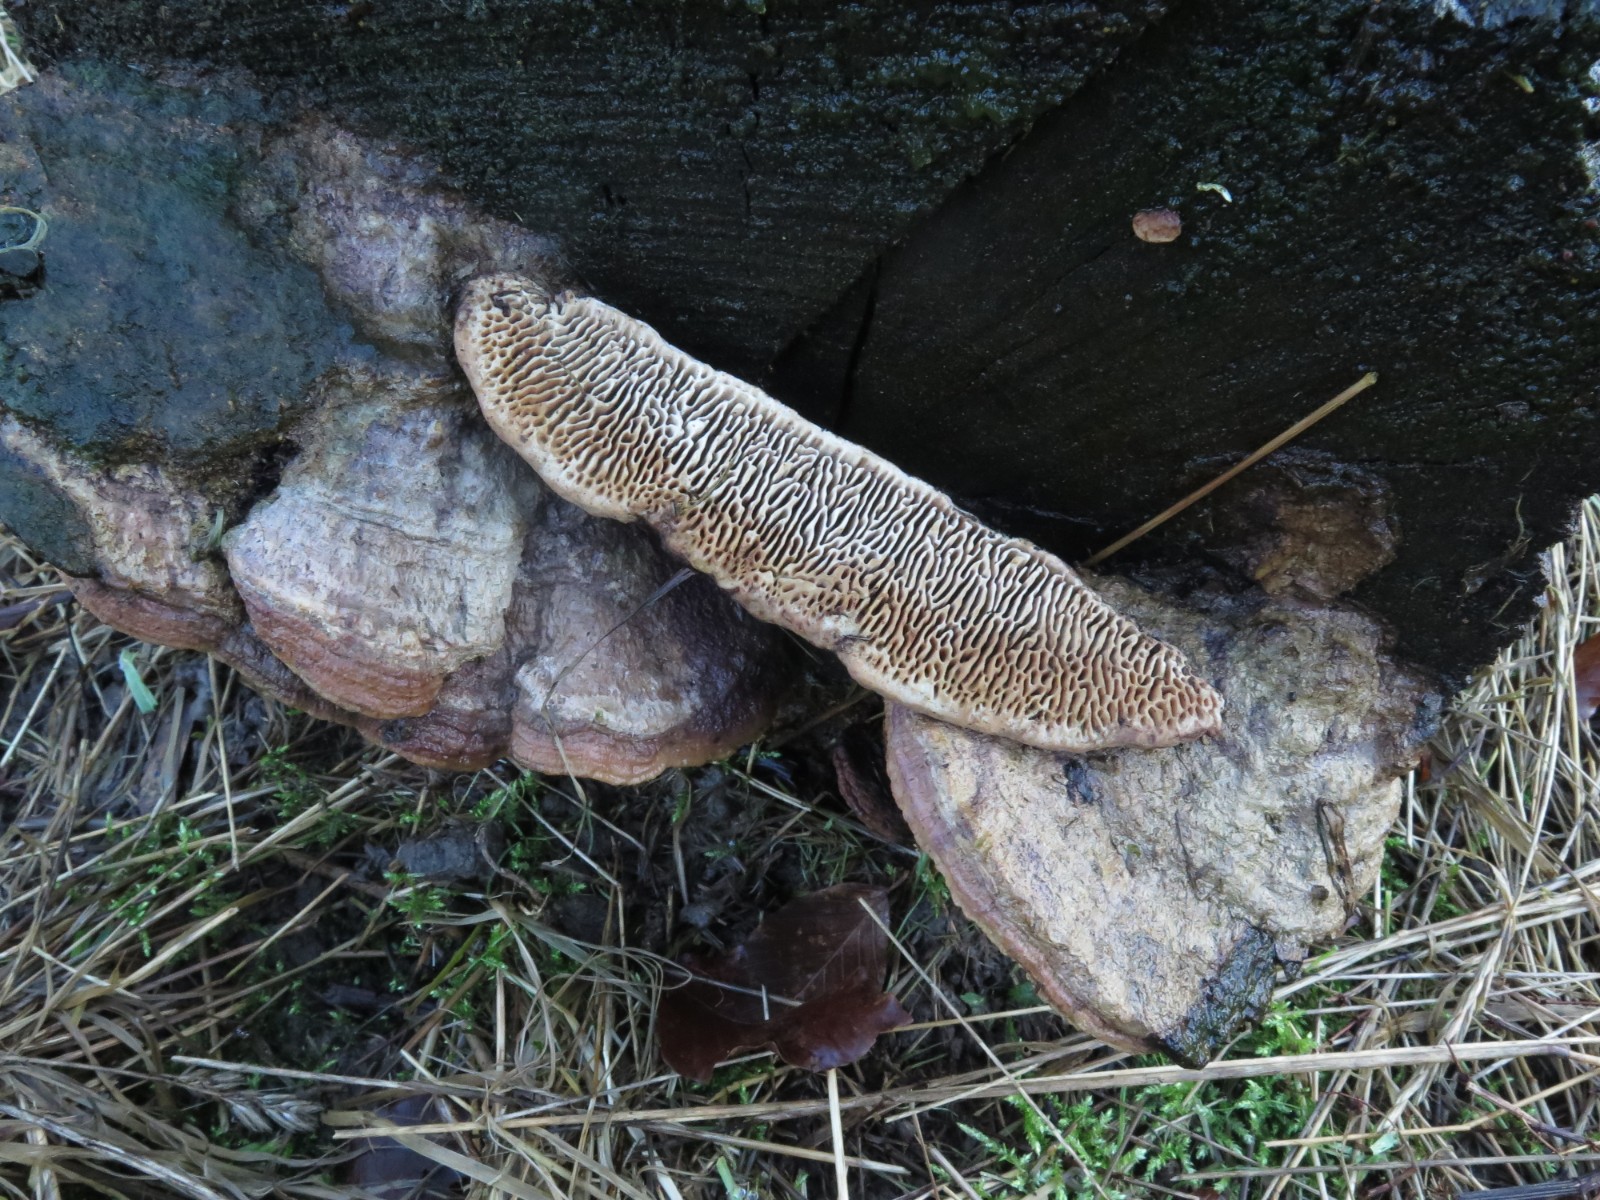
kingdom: Fungi
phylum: Basidiomycota
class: Agaricomycetes
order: Polyporales
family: Fomitopsidaceae
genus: Daedalea
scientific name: Daedalea quercina
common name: ege-labyrintsvamp
